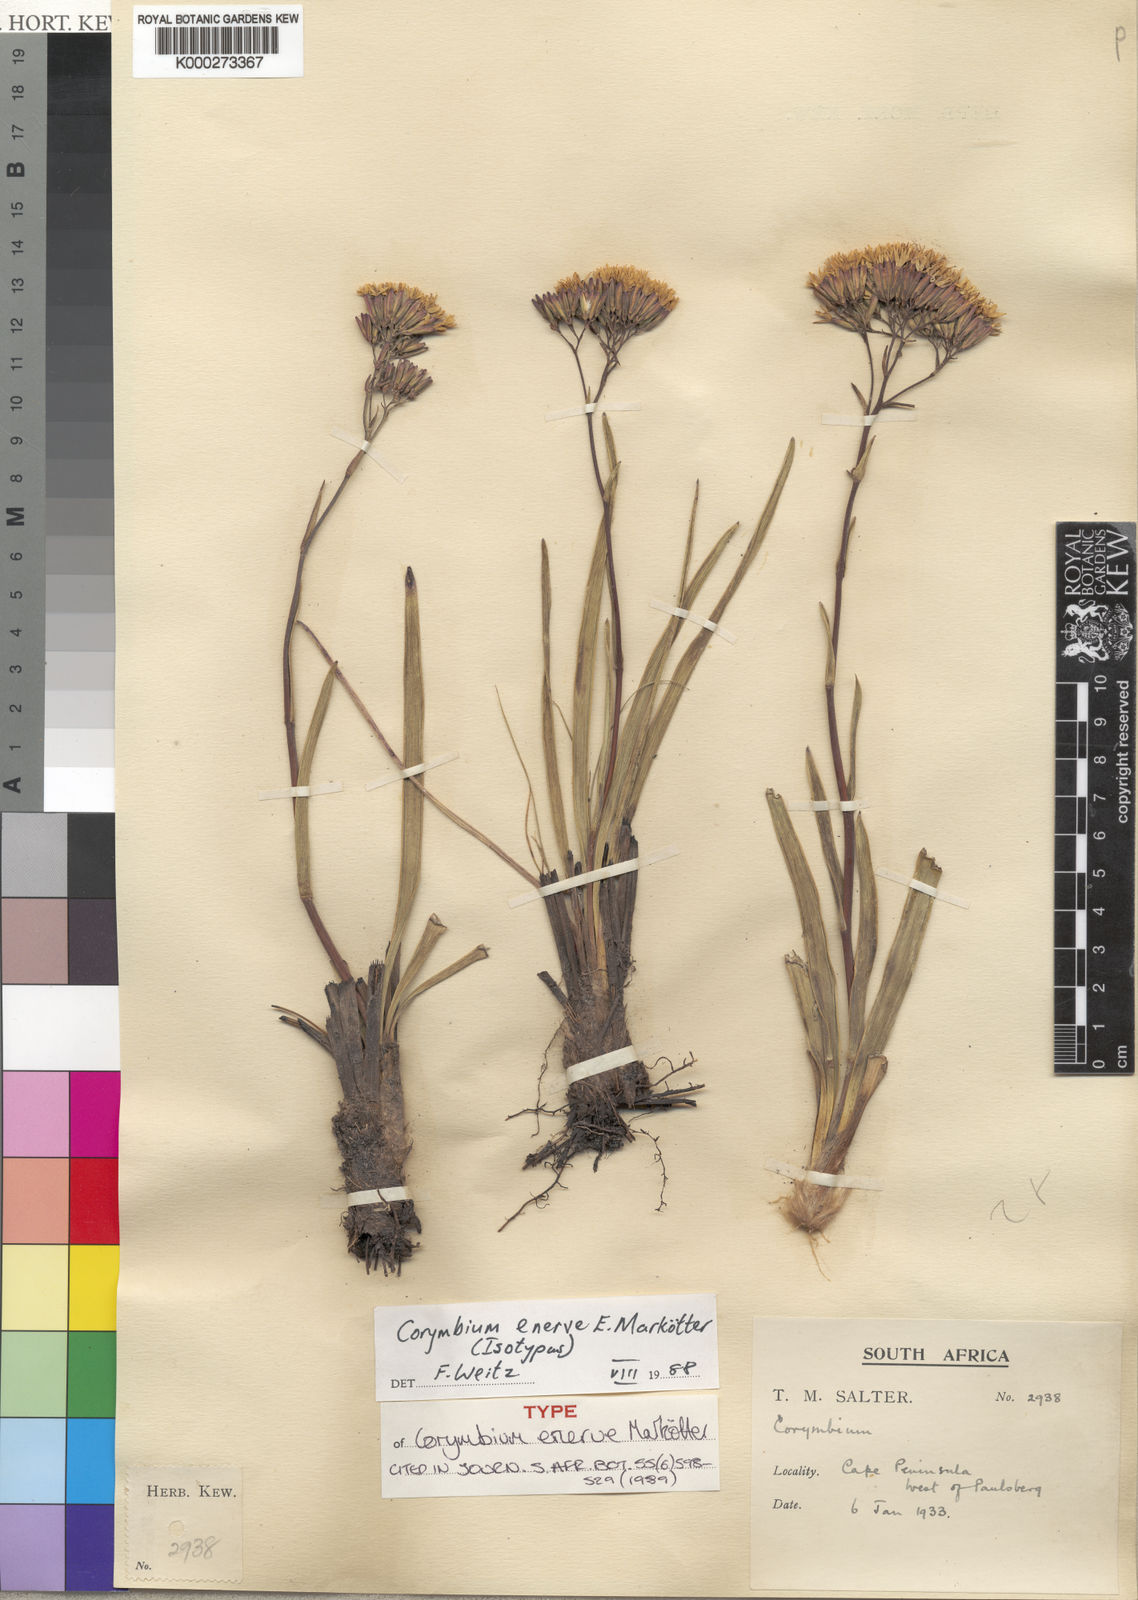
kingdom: Plantae
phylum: Tracheophyta
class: Magnoliopsida
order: Asterales
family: Asteraceae
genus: Corymbium
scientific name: Corymbium
